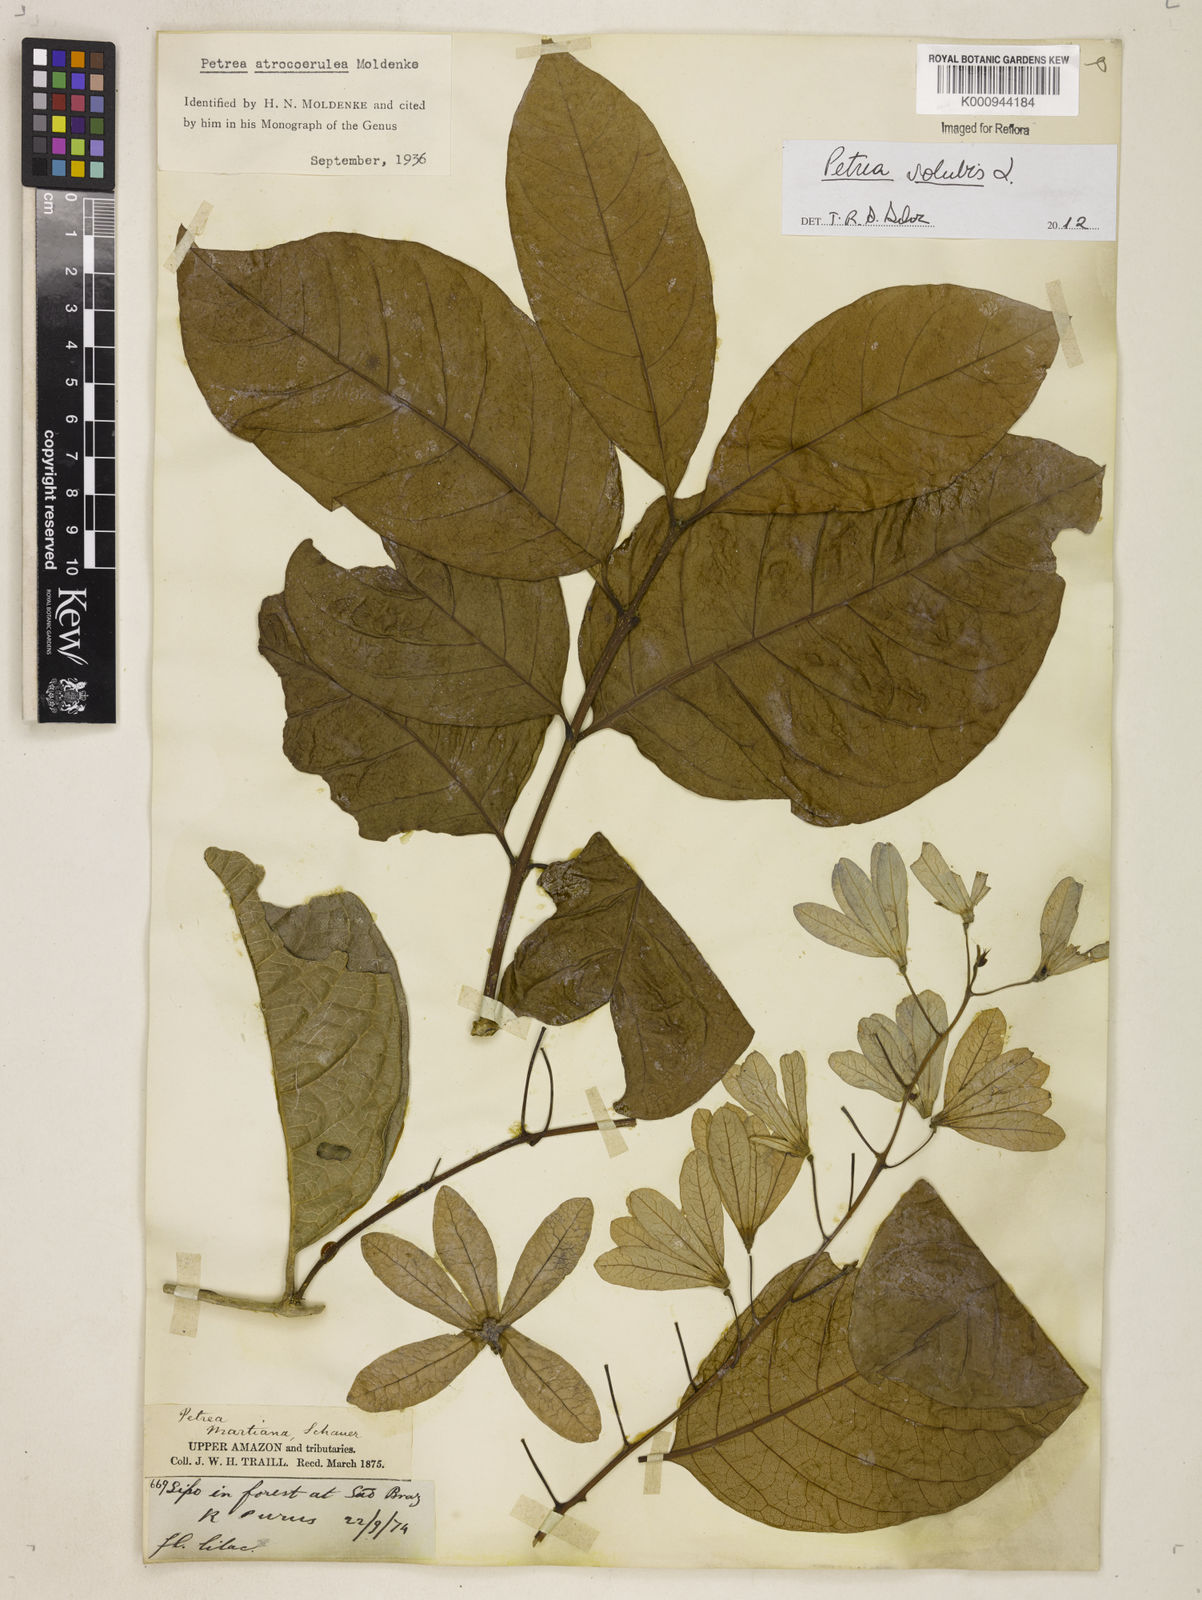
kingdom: Plantae
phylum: Tracheophyta
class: Magnoliopsida
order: Lamiales
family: Verbenaceae
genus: Petrea
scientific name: Petrea volubilis
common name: Queen's-wreath
